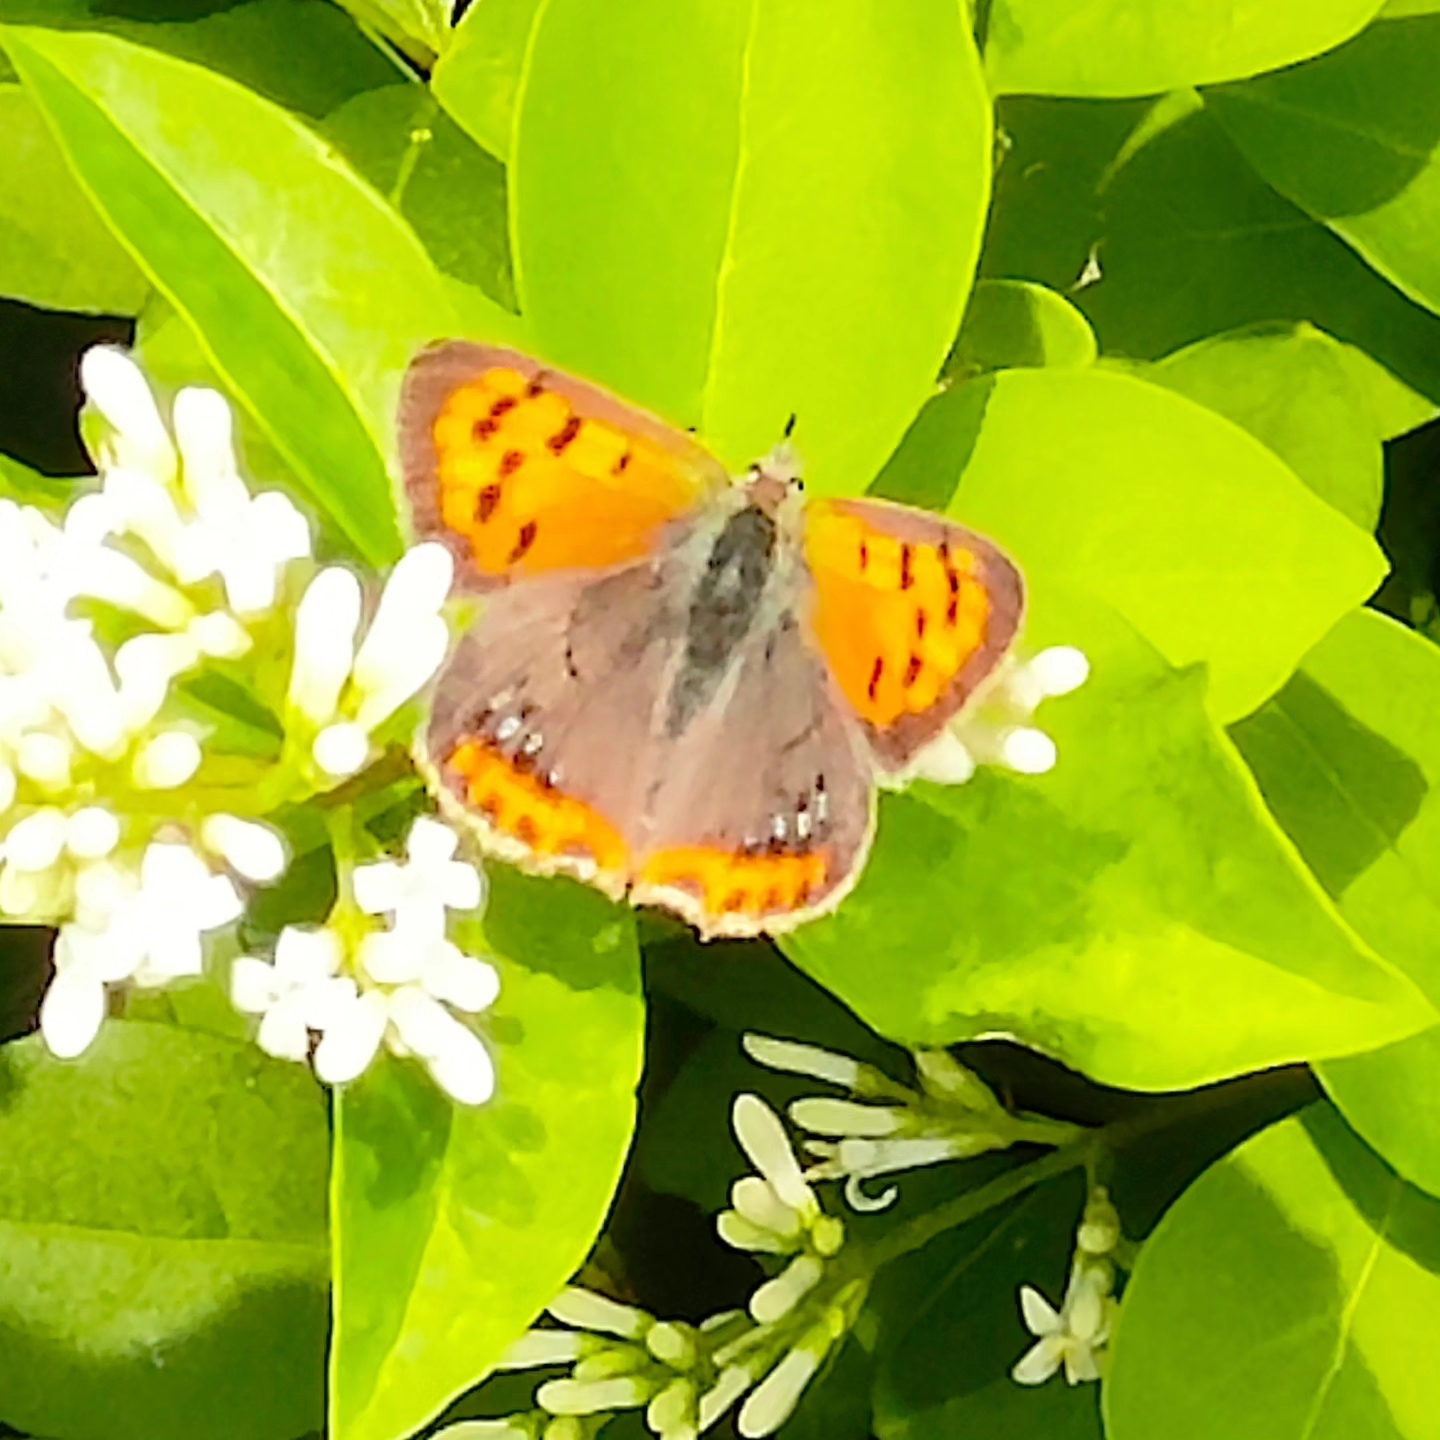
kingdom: Animalia
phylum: Arthropoda
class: Insecta
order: Lepidoptera
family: Lycaenidae
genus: Lycaena
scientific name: Lycaena phlaeas
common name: Lille ildfugl
